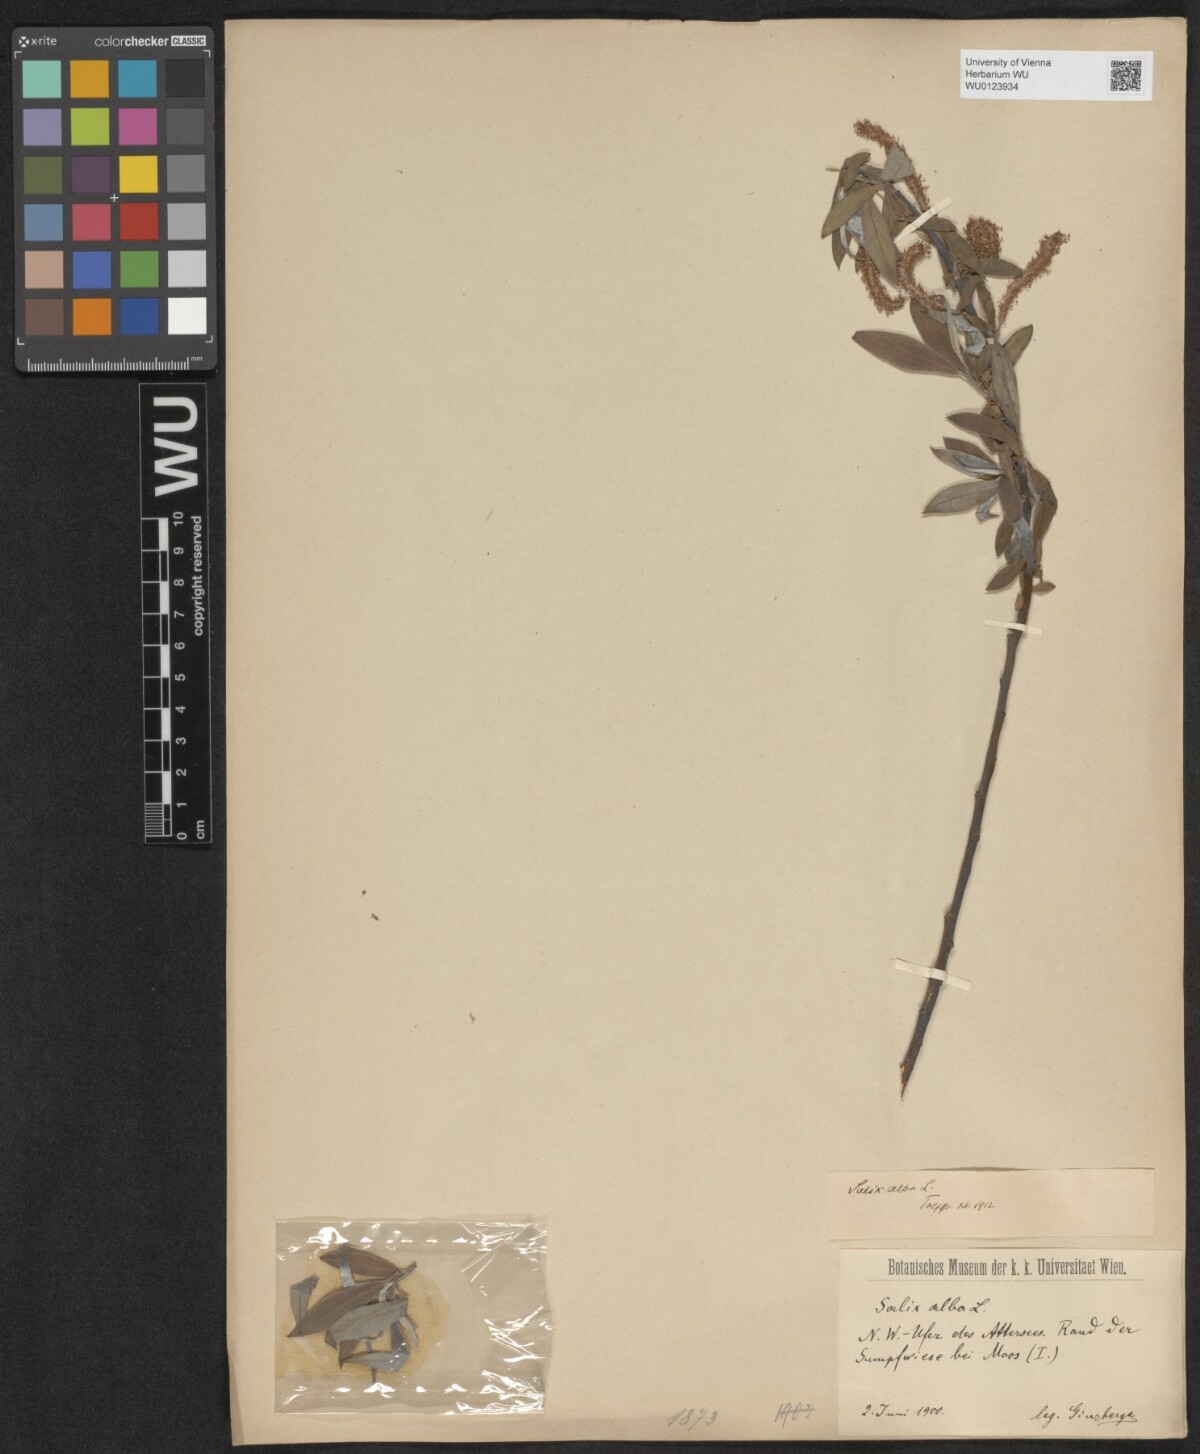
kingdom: Plantae
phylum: Tracheophyta
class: Magnoliopsida
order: Malpighiales
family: Salicaceae
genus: Salix
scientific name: Salix alba
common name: White willow
